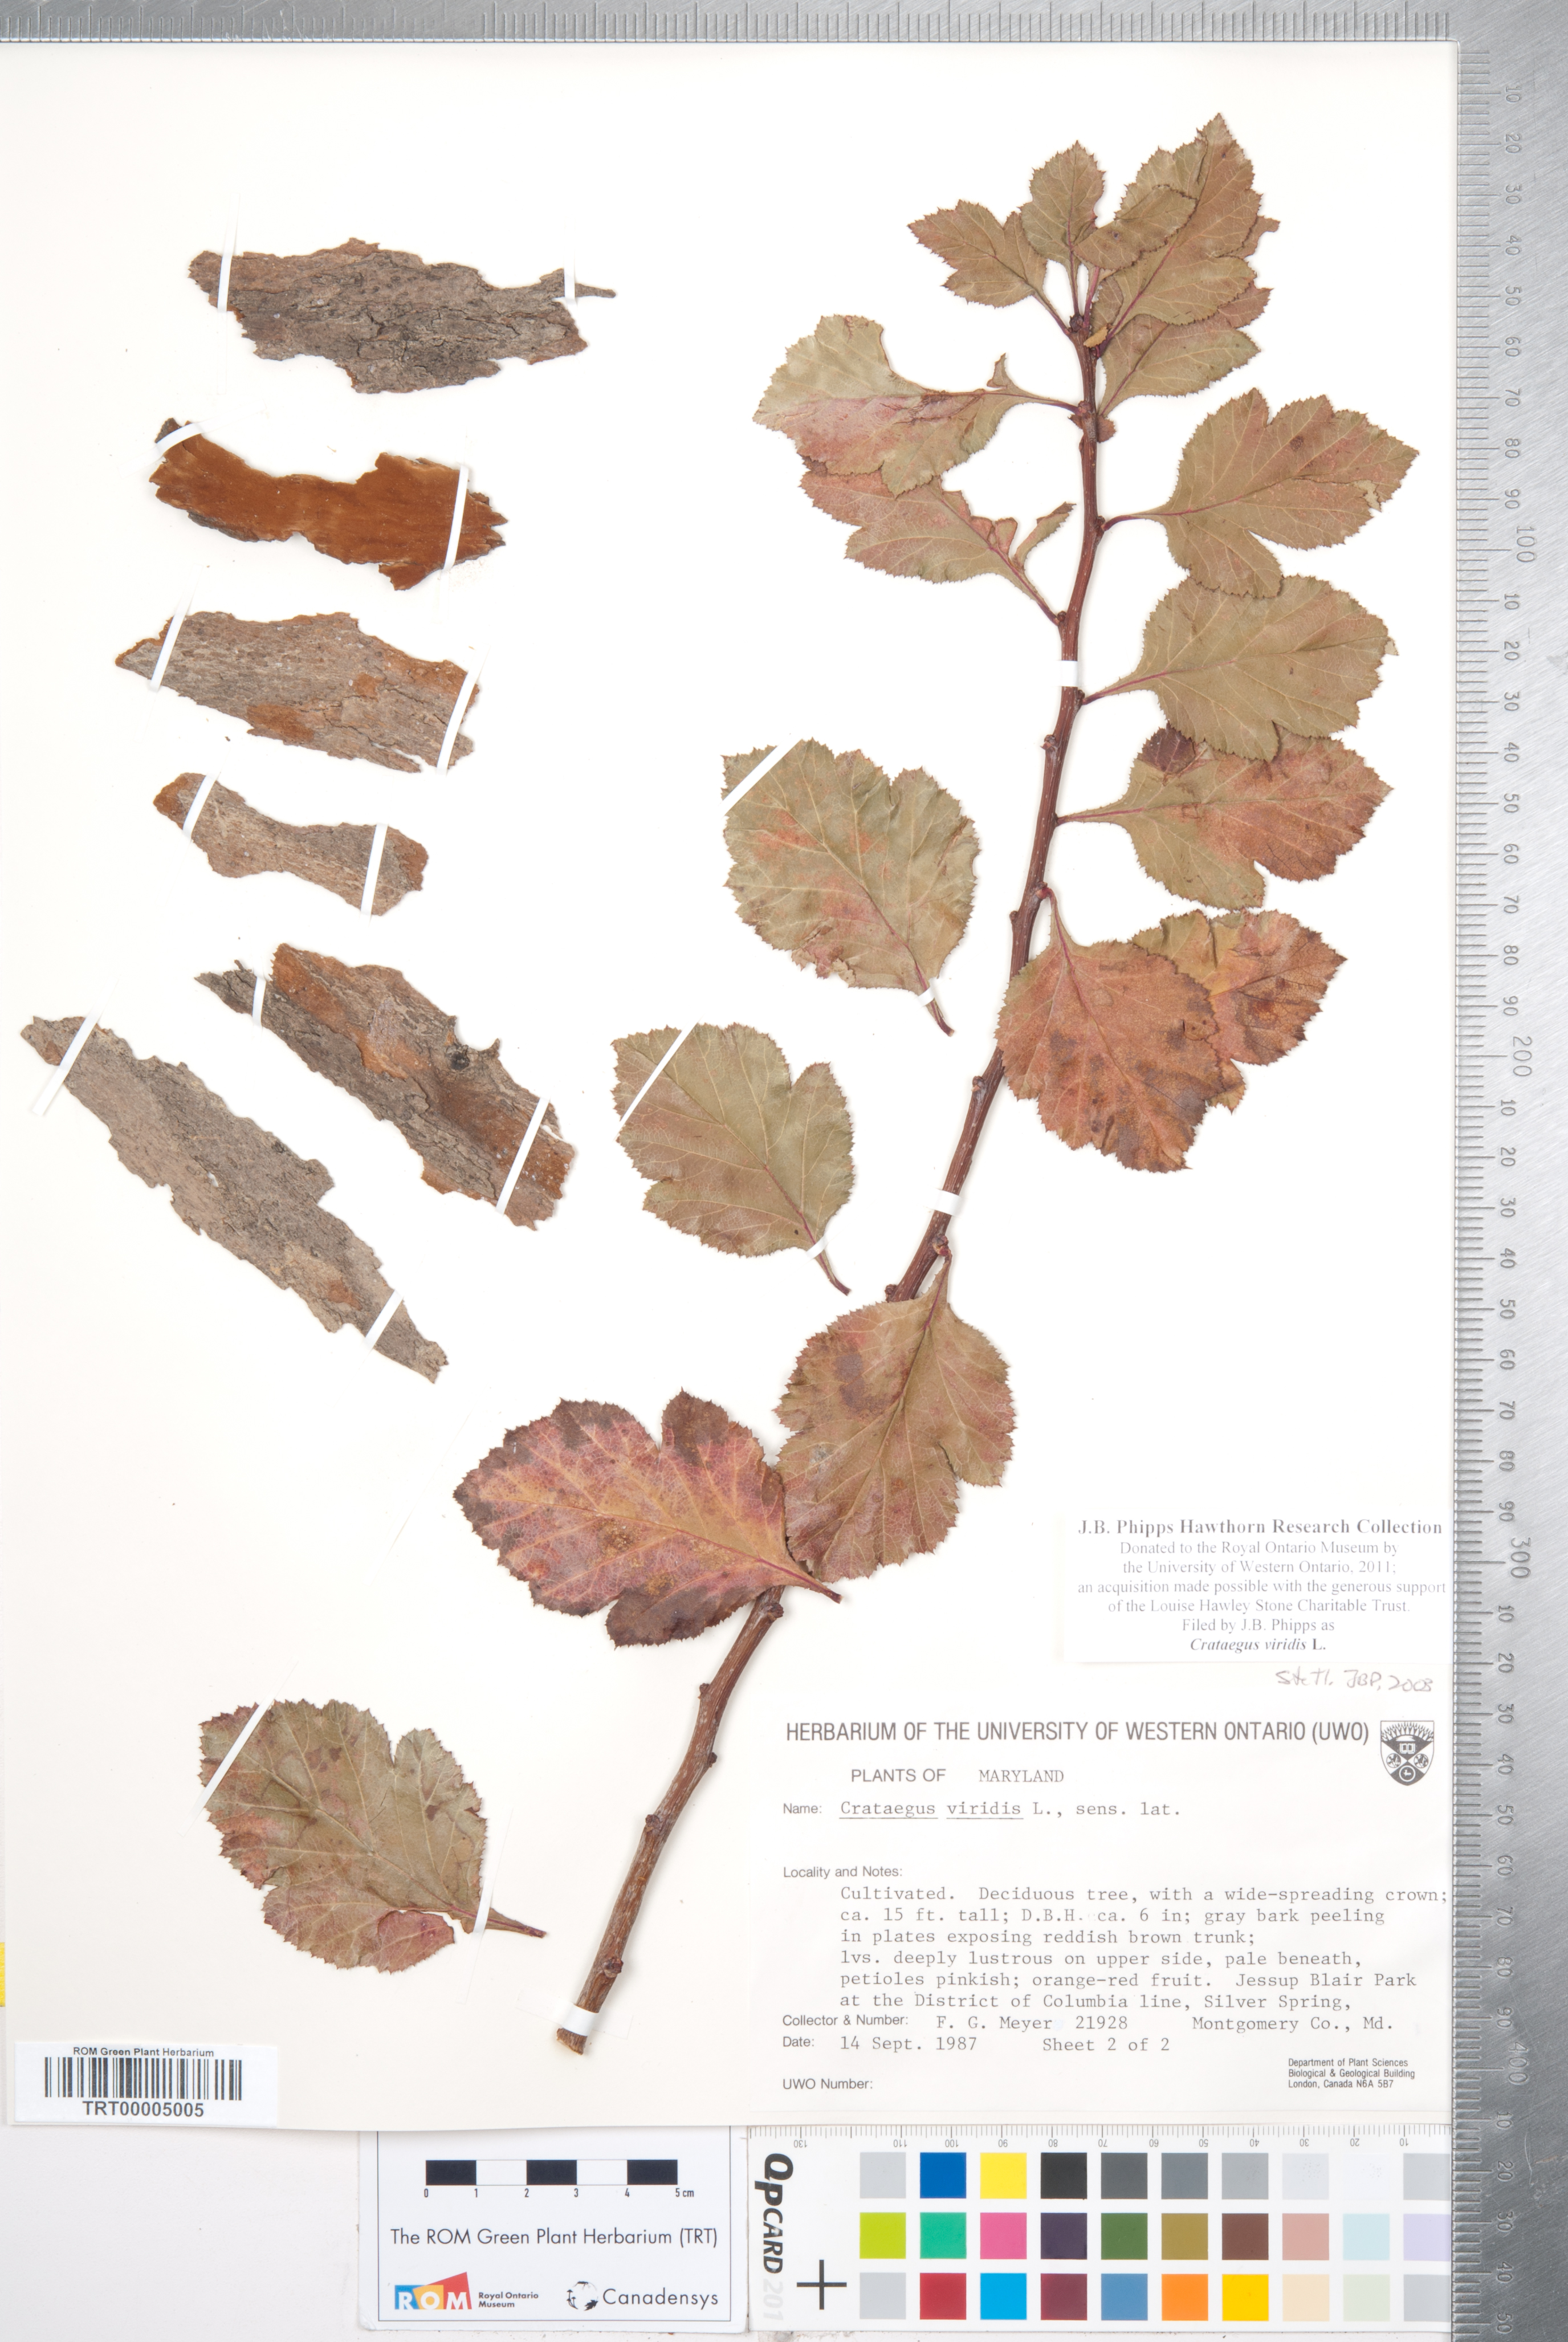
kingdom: Plantae
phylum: Tracheophyta
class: Magnoliopsida
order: Rosales
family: Rosaceae
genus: Crataegus
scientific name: Crataegus viridis
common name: Southernthorn
